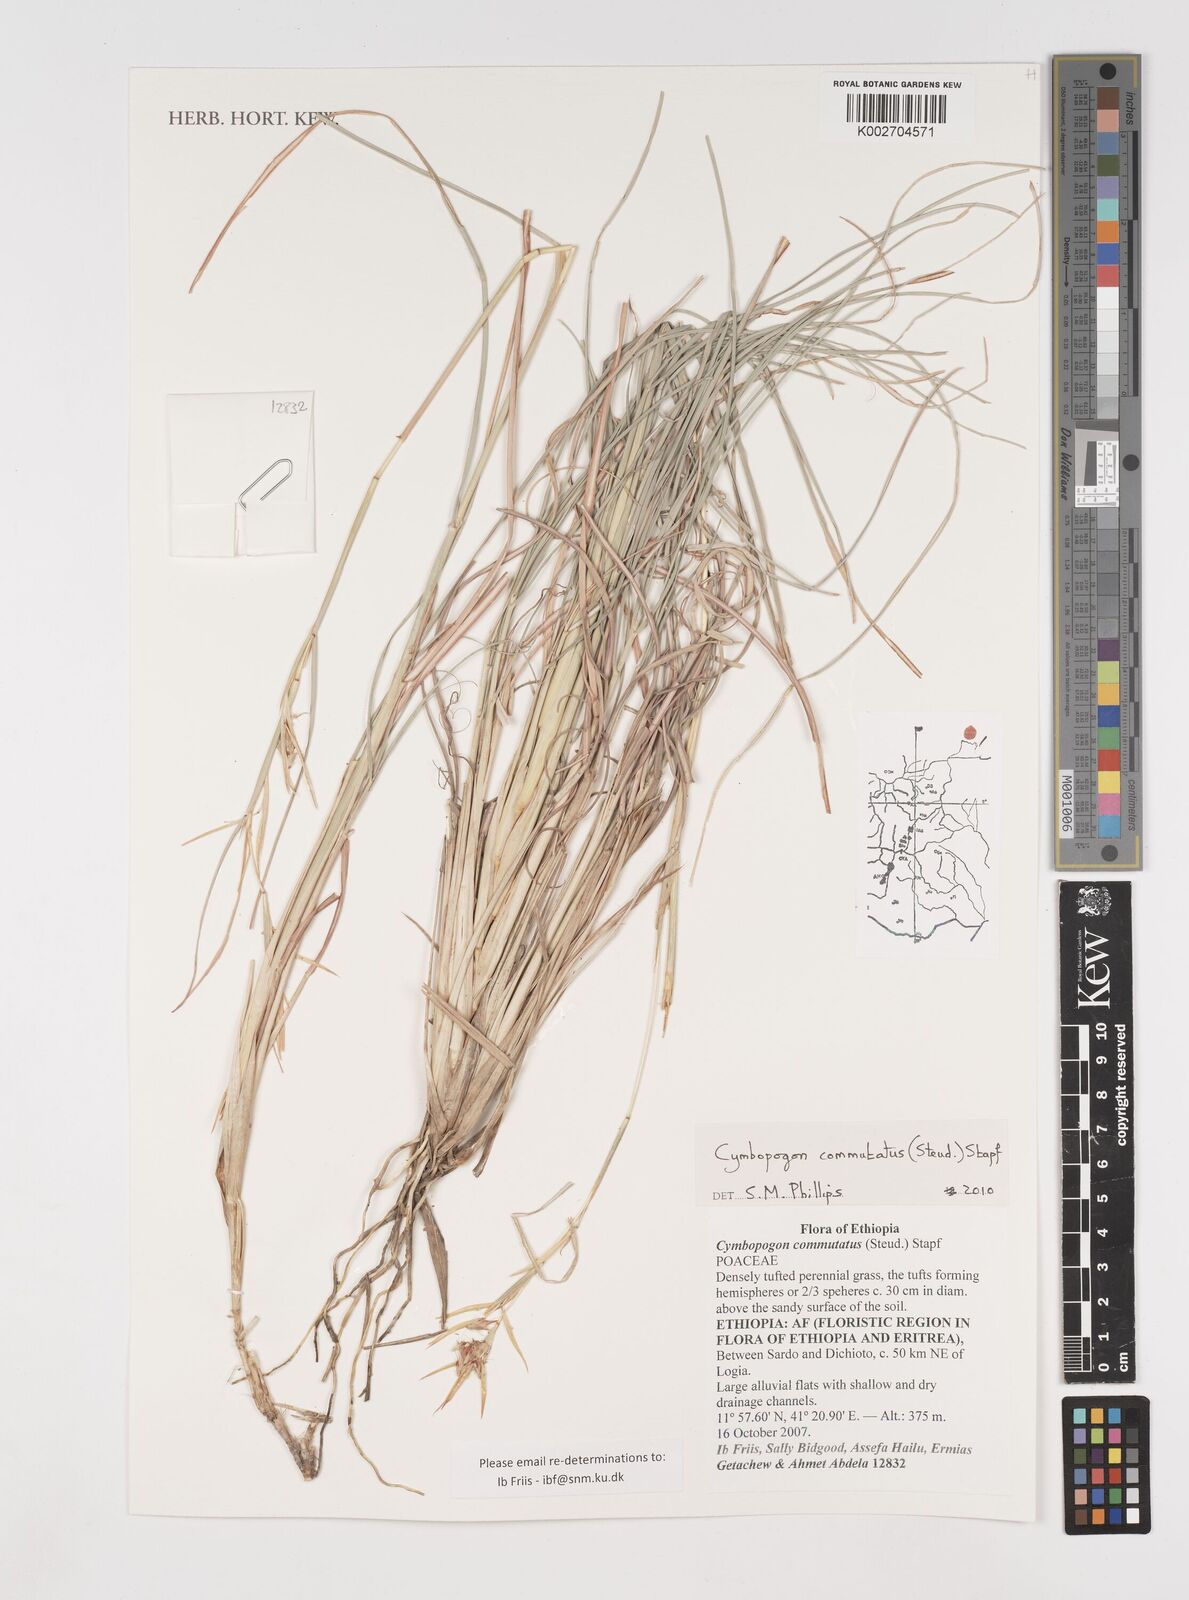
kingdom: Plantae
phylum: Tracheophyta
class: Liliopsida
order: Poales
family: Poaceae
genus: Cymbopogon
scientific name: Cymbopogon commutatus
